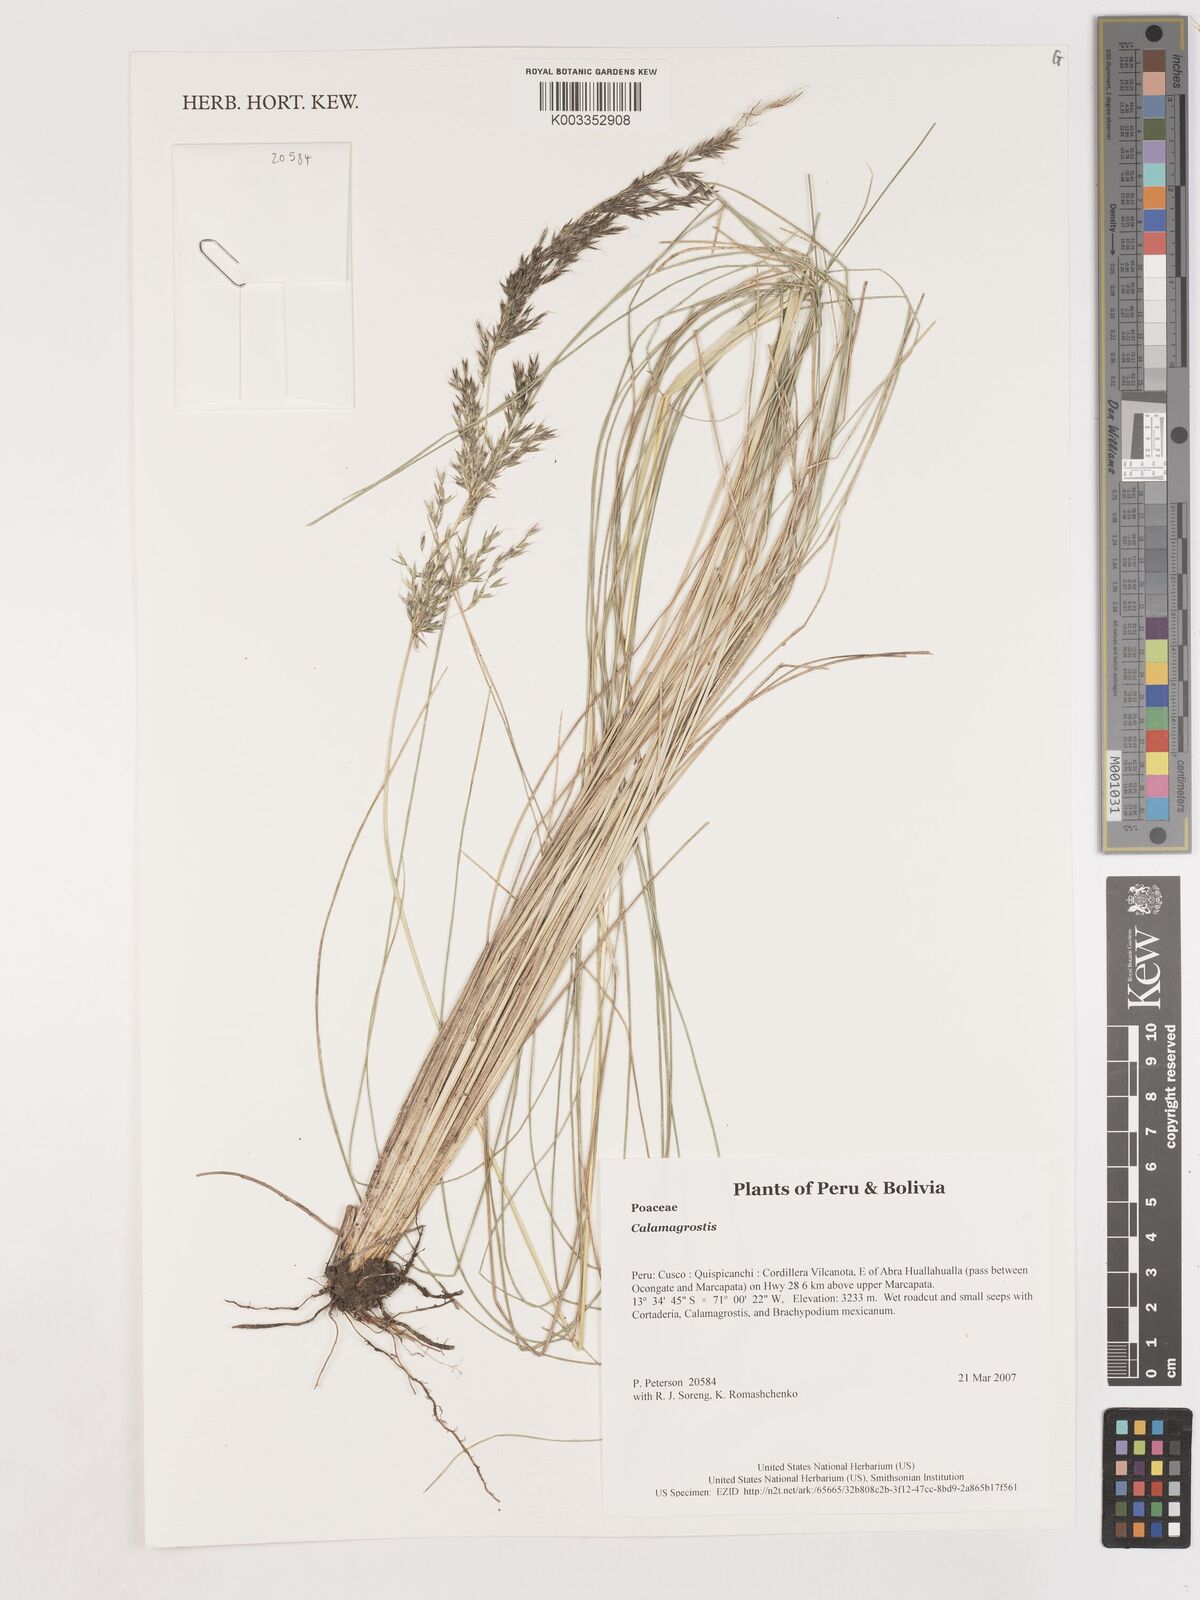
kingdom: Plantae
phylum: Tracheophyta
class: Liliopsida
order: Poales
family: Poaceae
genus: Calamagrostis
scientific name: Calamagrostis
